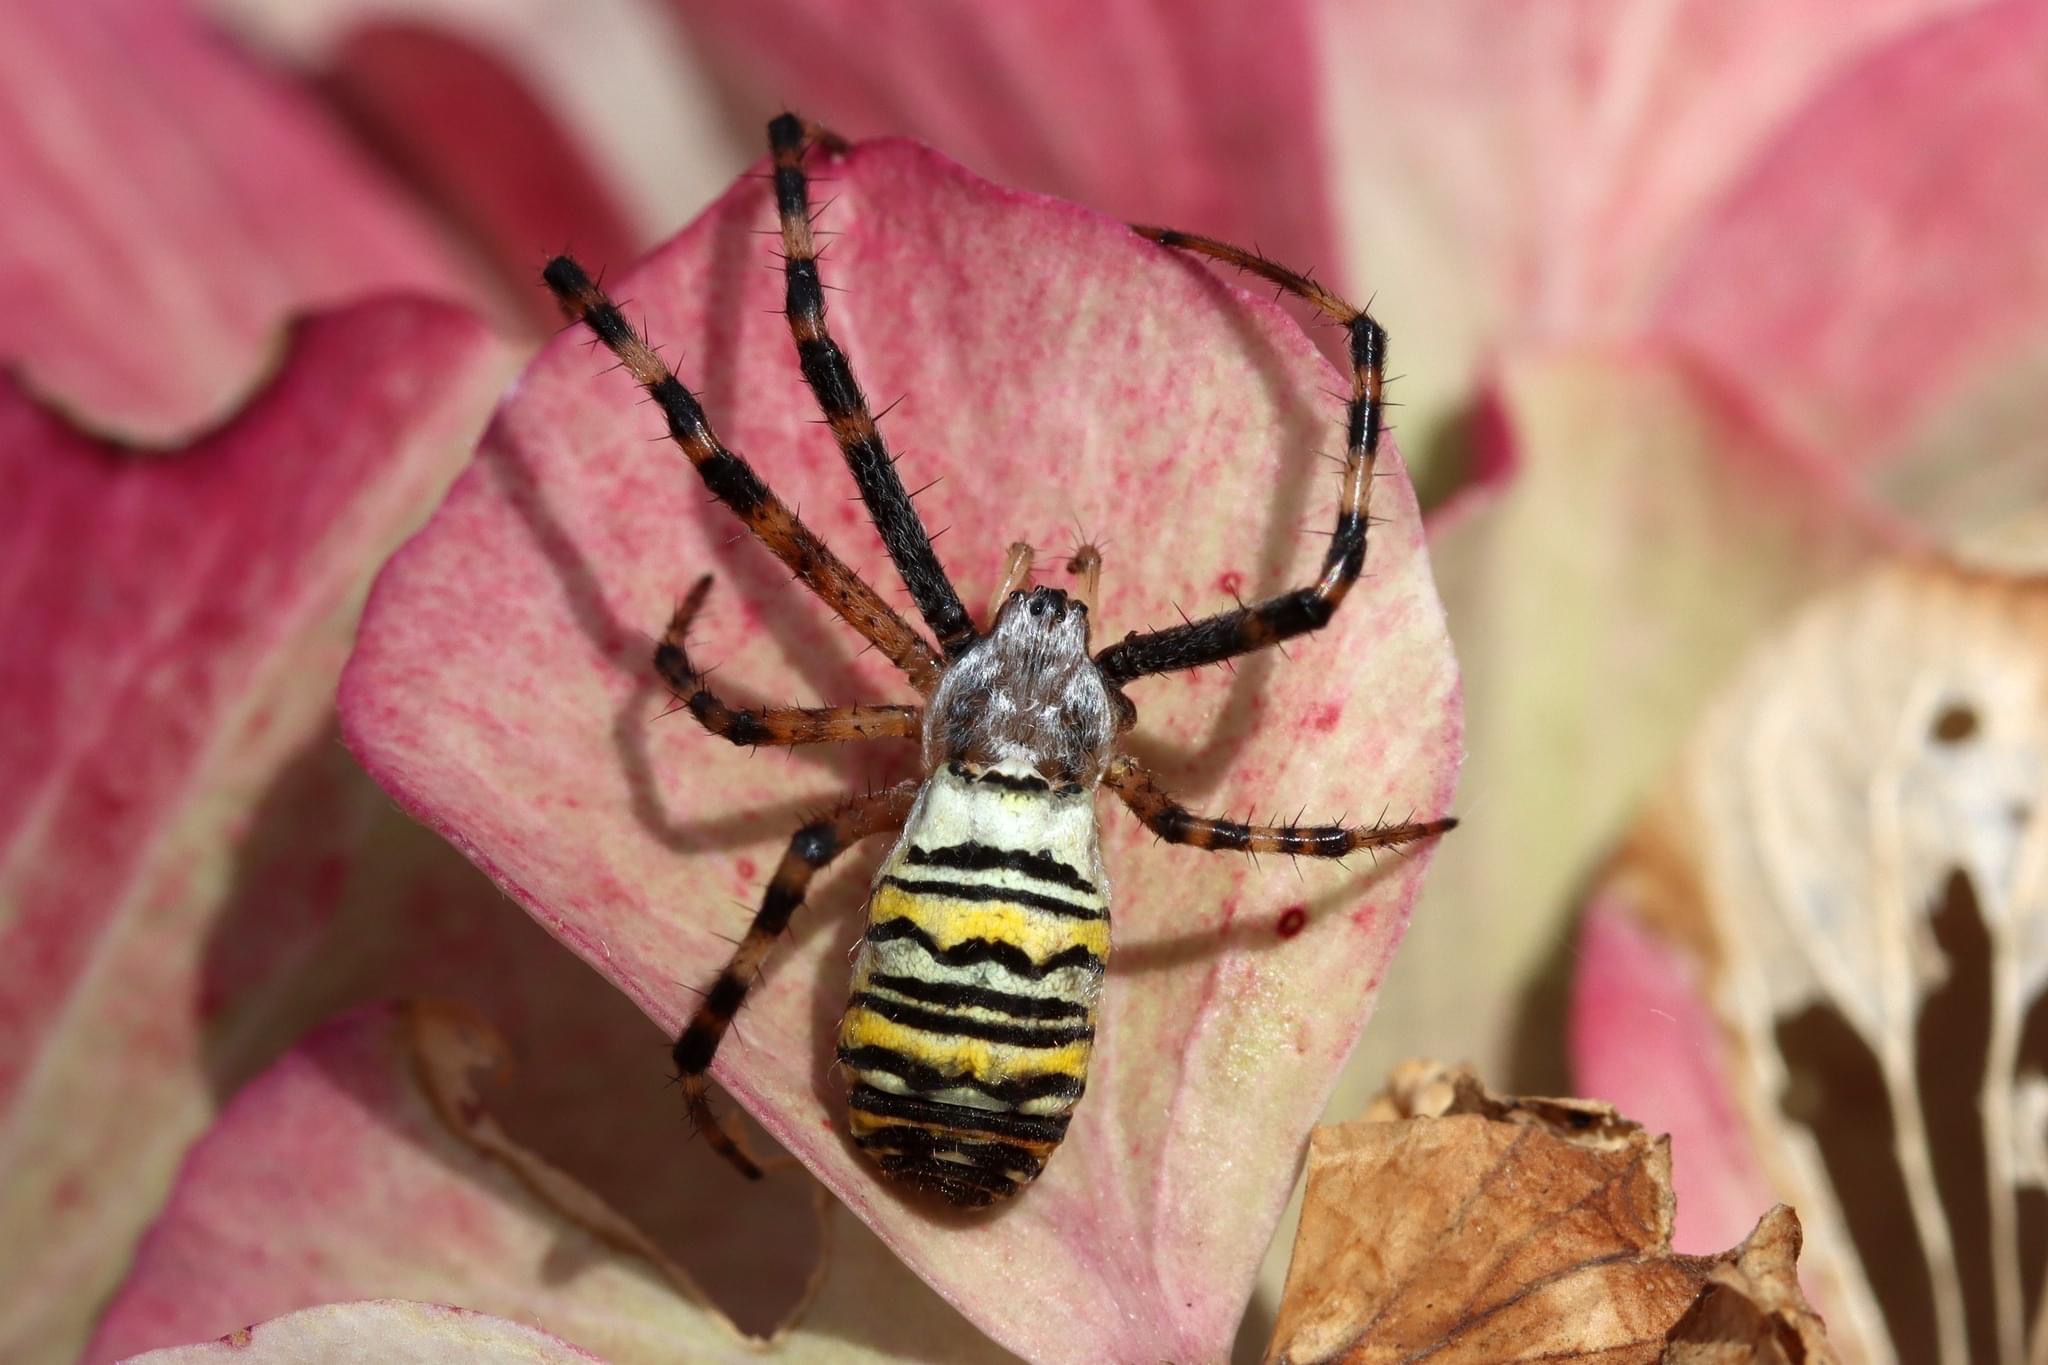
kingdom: Animalia
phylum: Arthropoda
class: Arachnida
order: Araneae
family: Araneidae
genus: Argiope
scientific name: Argiope bruennichi
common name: Hvepseedderkop
